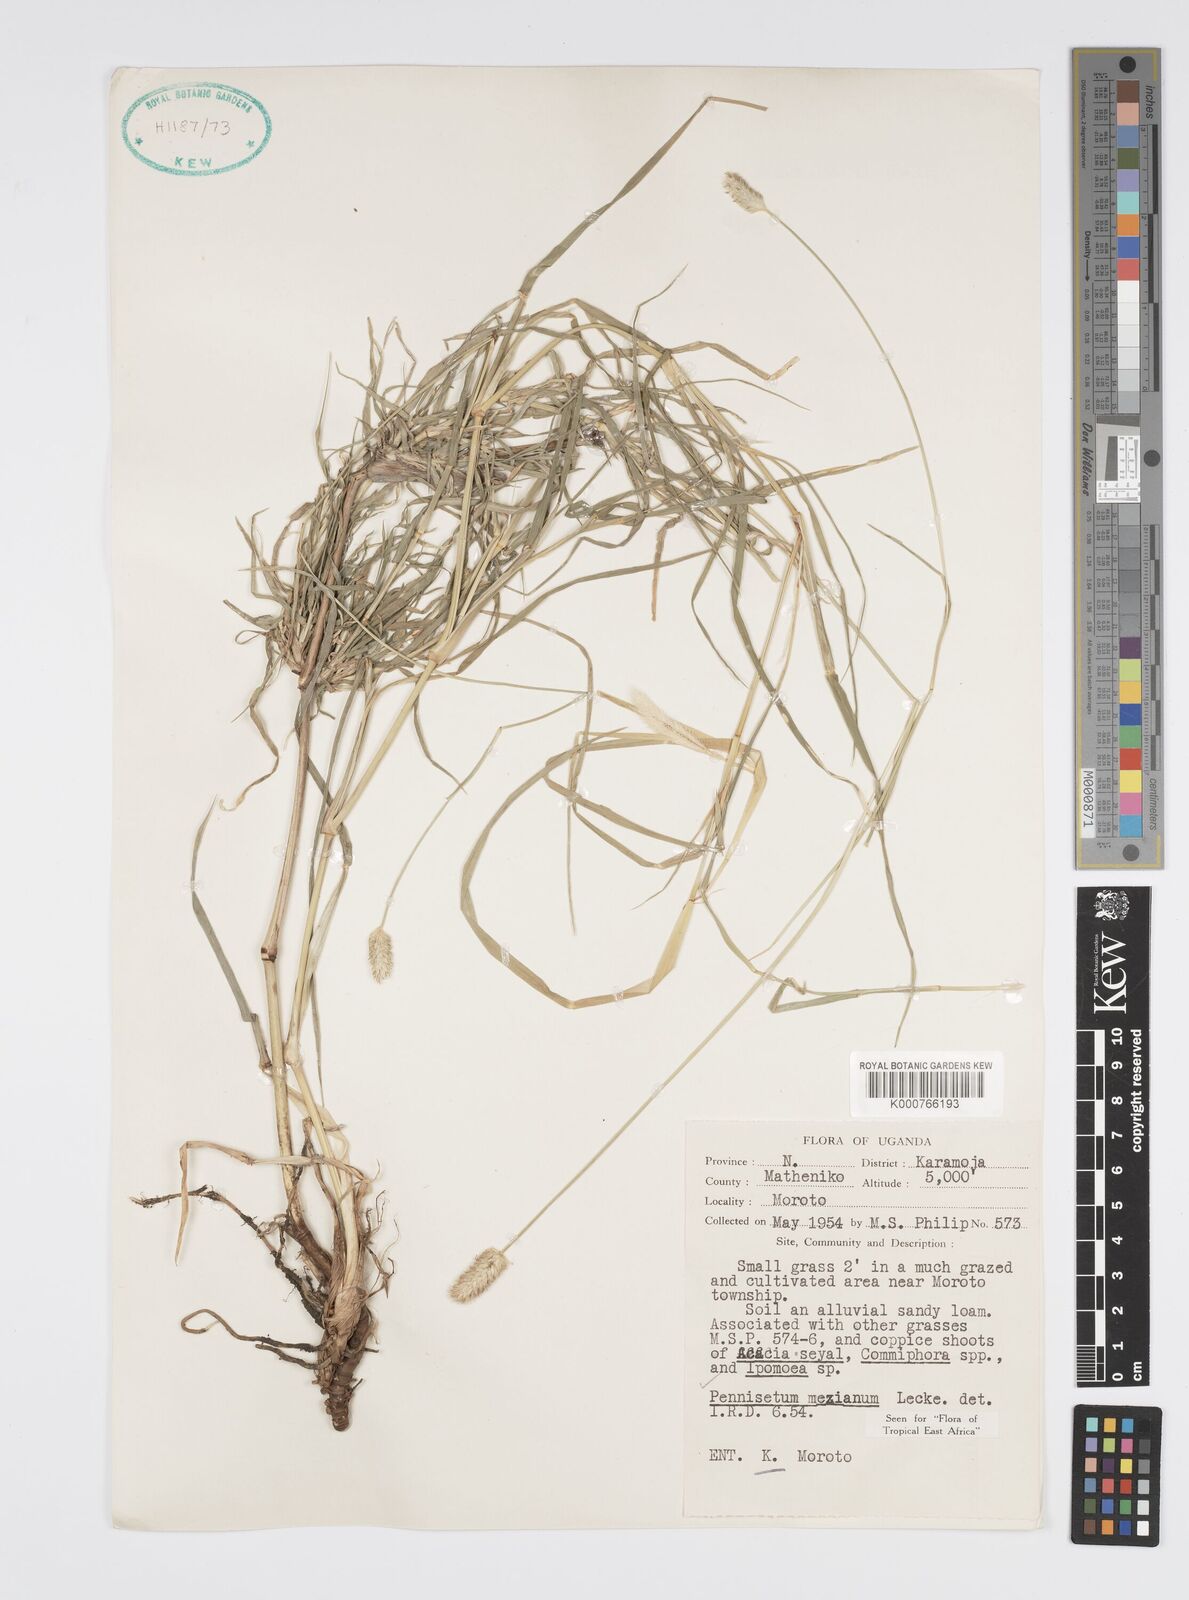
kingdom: Plantae
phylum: Tracheophyta
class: Liliopsida
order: Poales
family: Poaceae
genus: Cenchrus
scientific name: Cenchrus mezianus
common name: Bamboo grass
